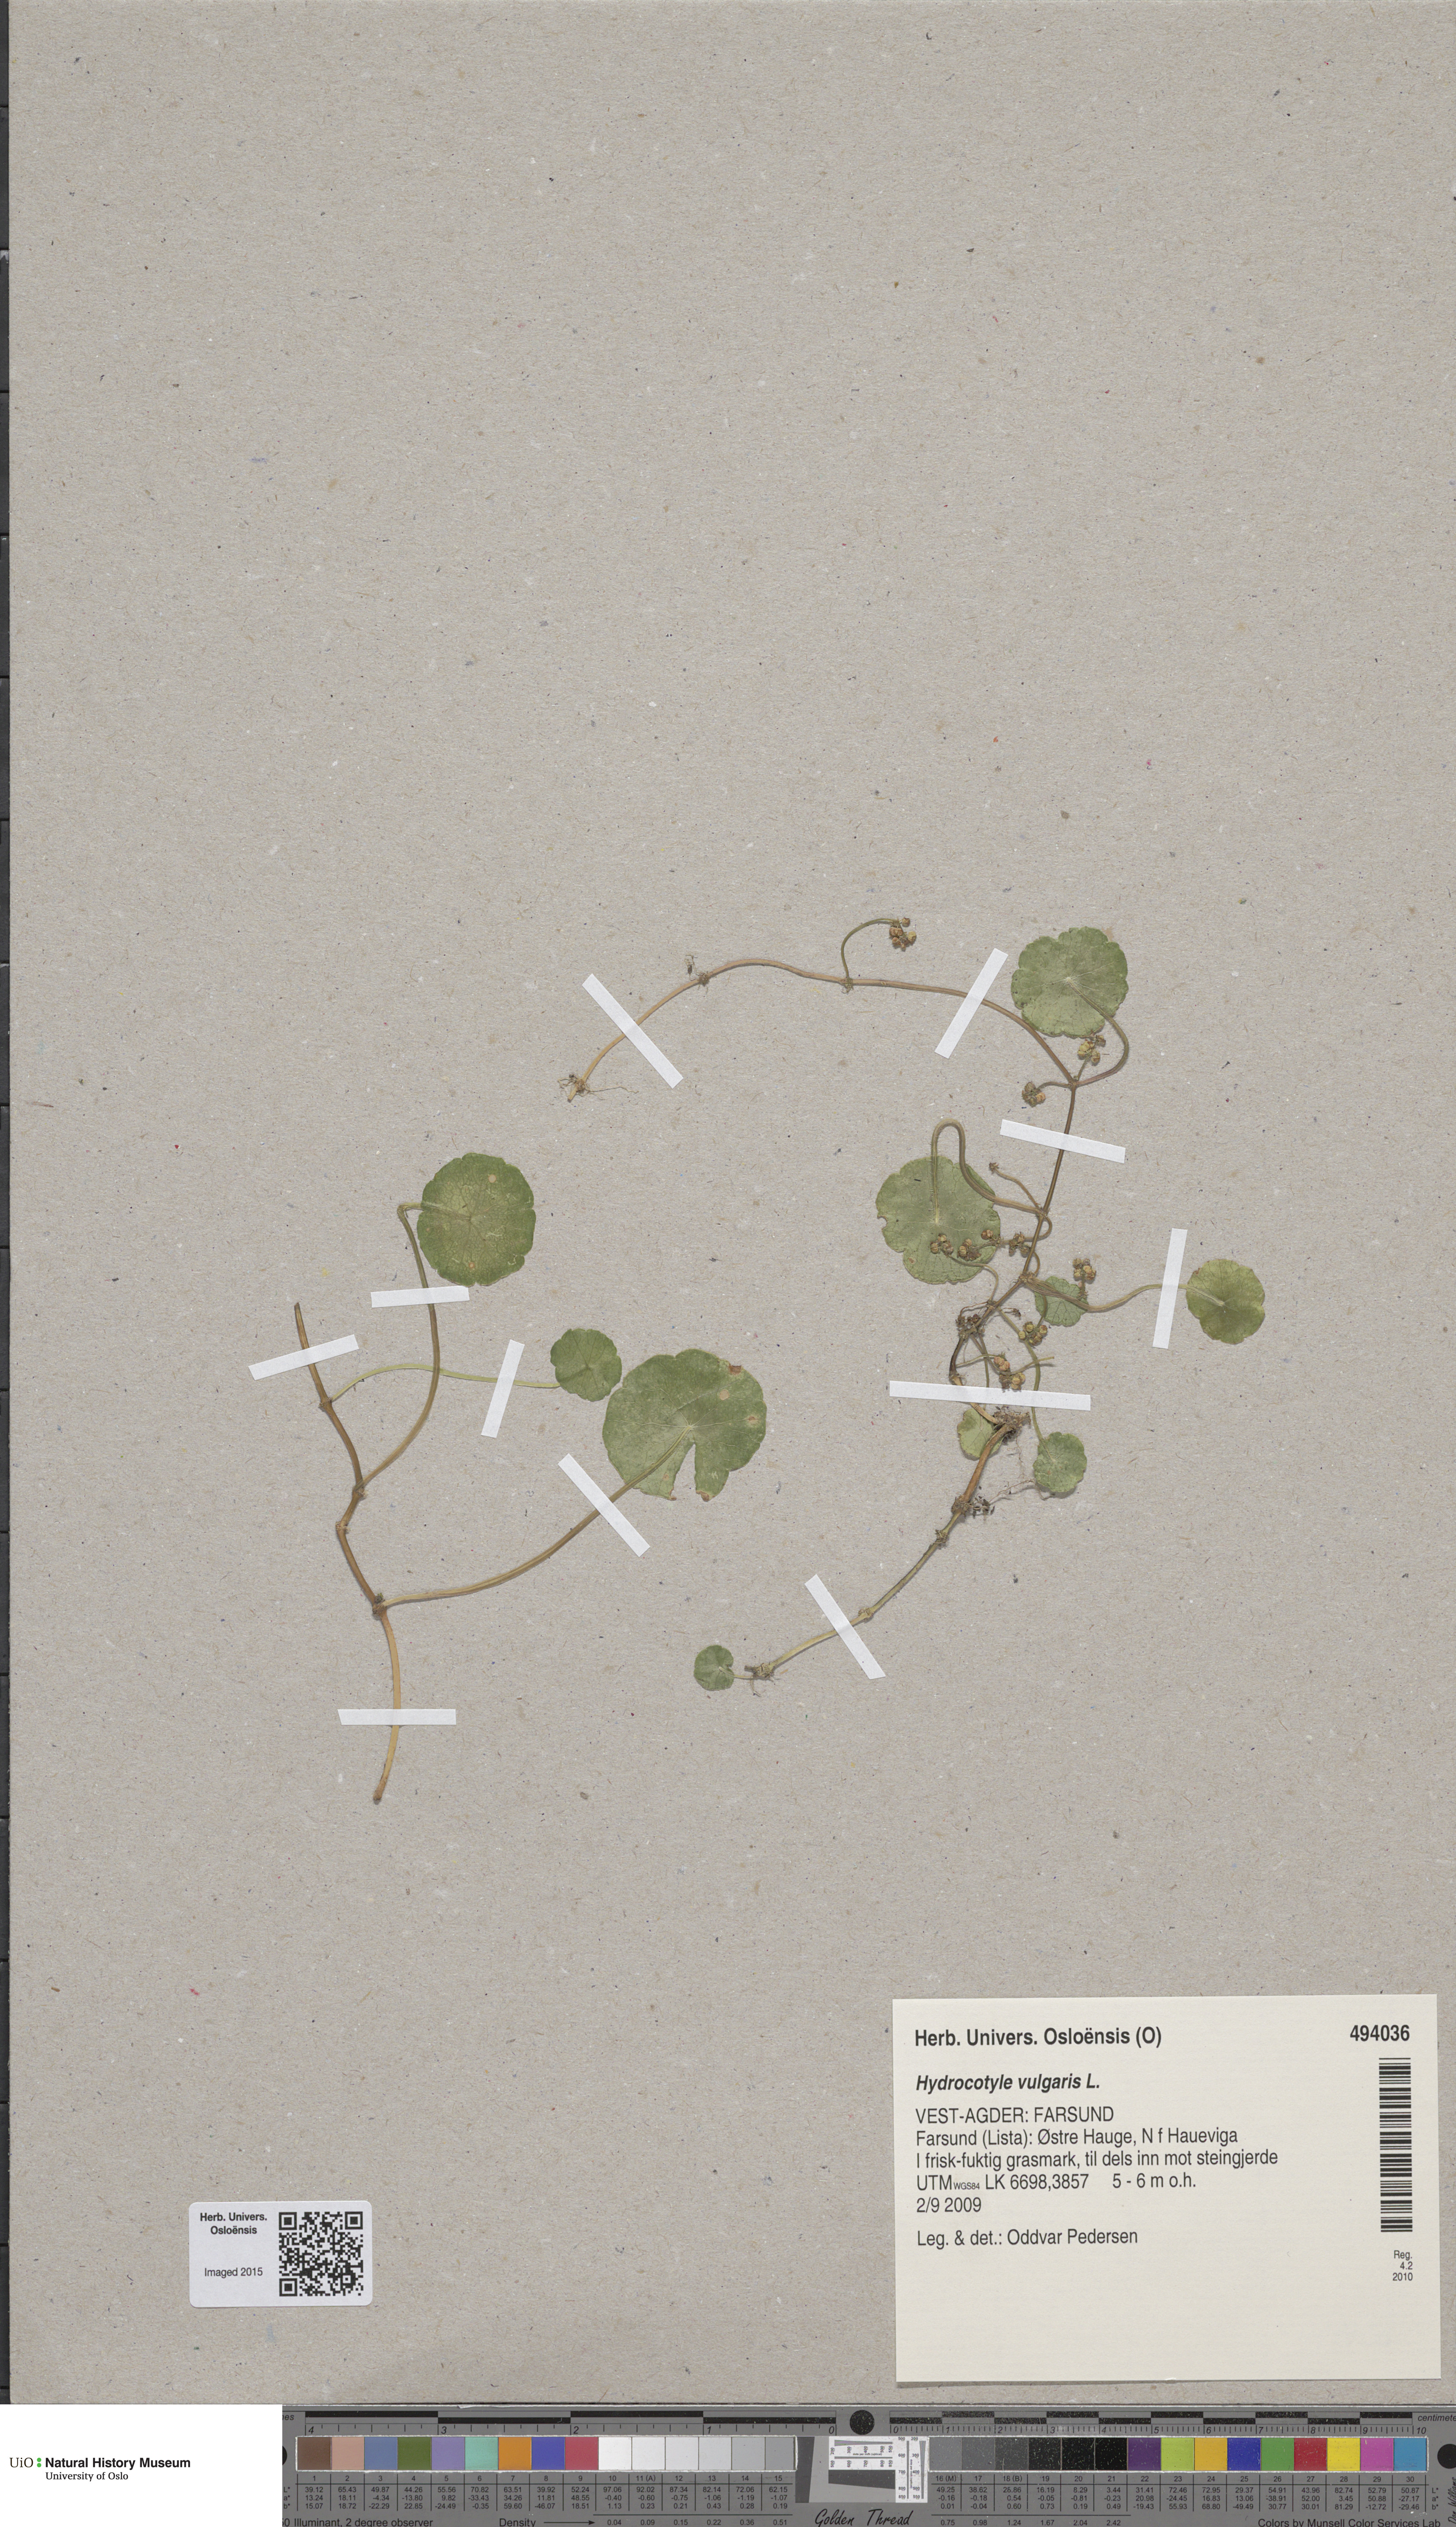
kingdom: Plantae
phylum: Tracheophyta
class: Magnoliopsida
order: Apiales
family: Araliaceae
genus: Hydrocotyle
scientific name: Hydrocotyle vulgaris
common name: Marsh pennywort
